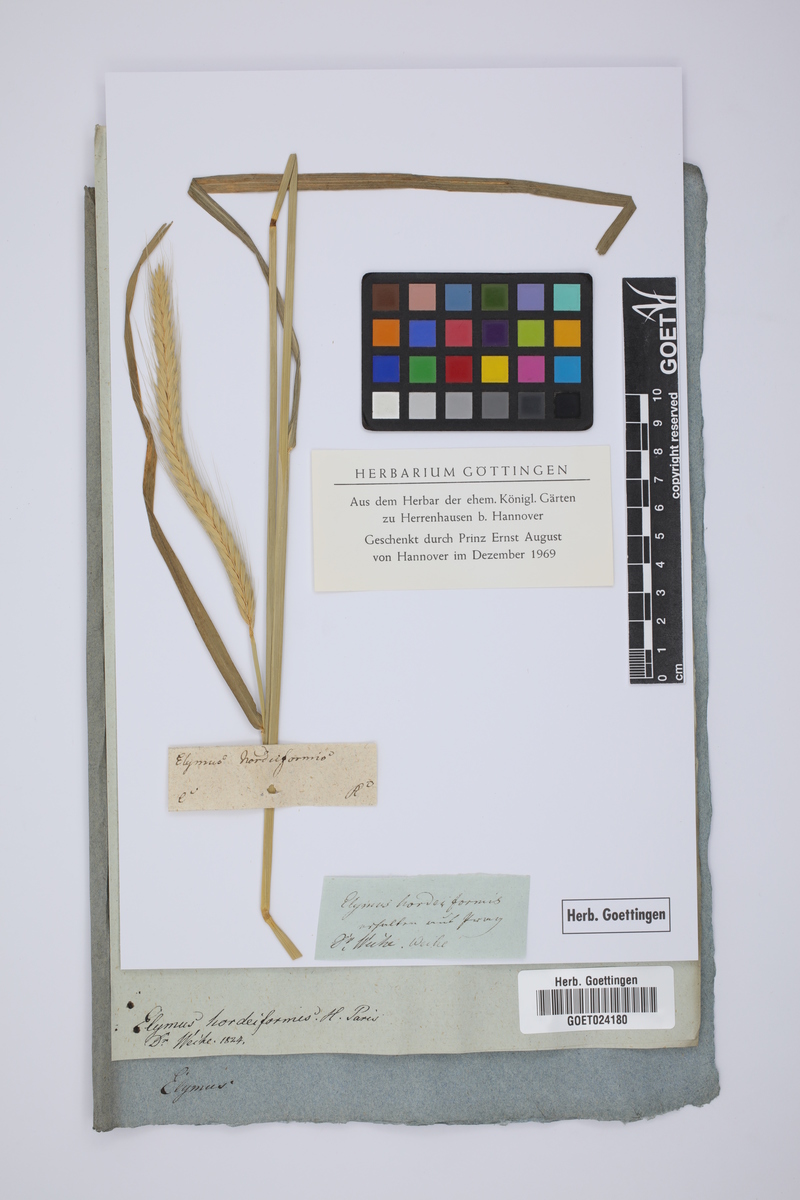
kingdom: Plantae
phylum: Tracheophyta
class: Liliopsida
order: Poales
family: Poaceae
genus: Elymus
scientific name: Elymus virginicus
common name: Common eastern wildrye
